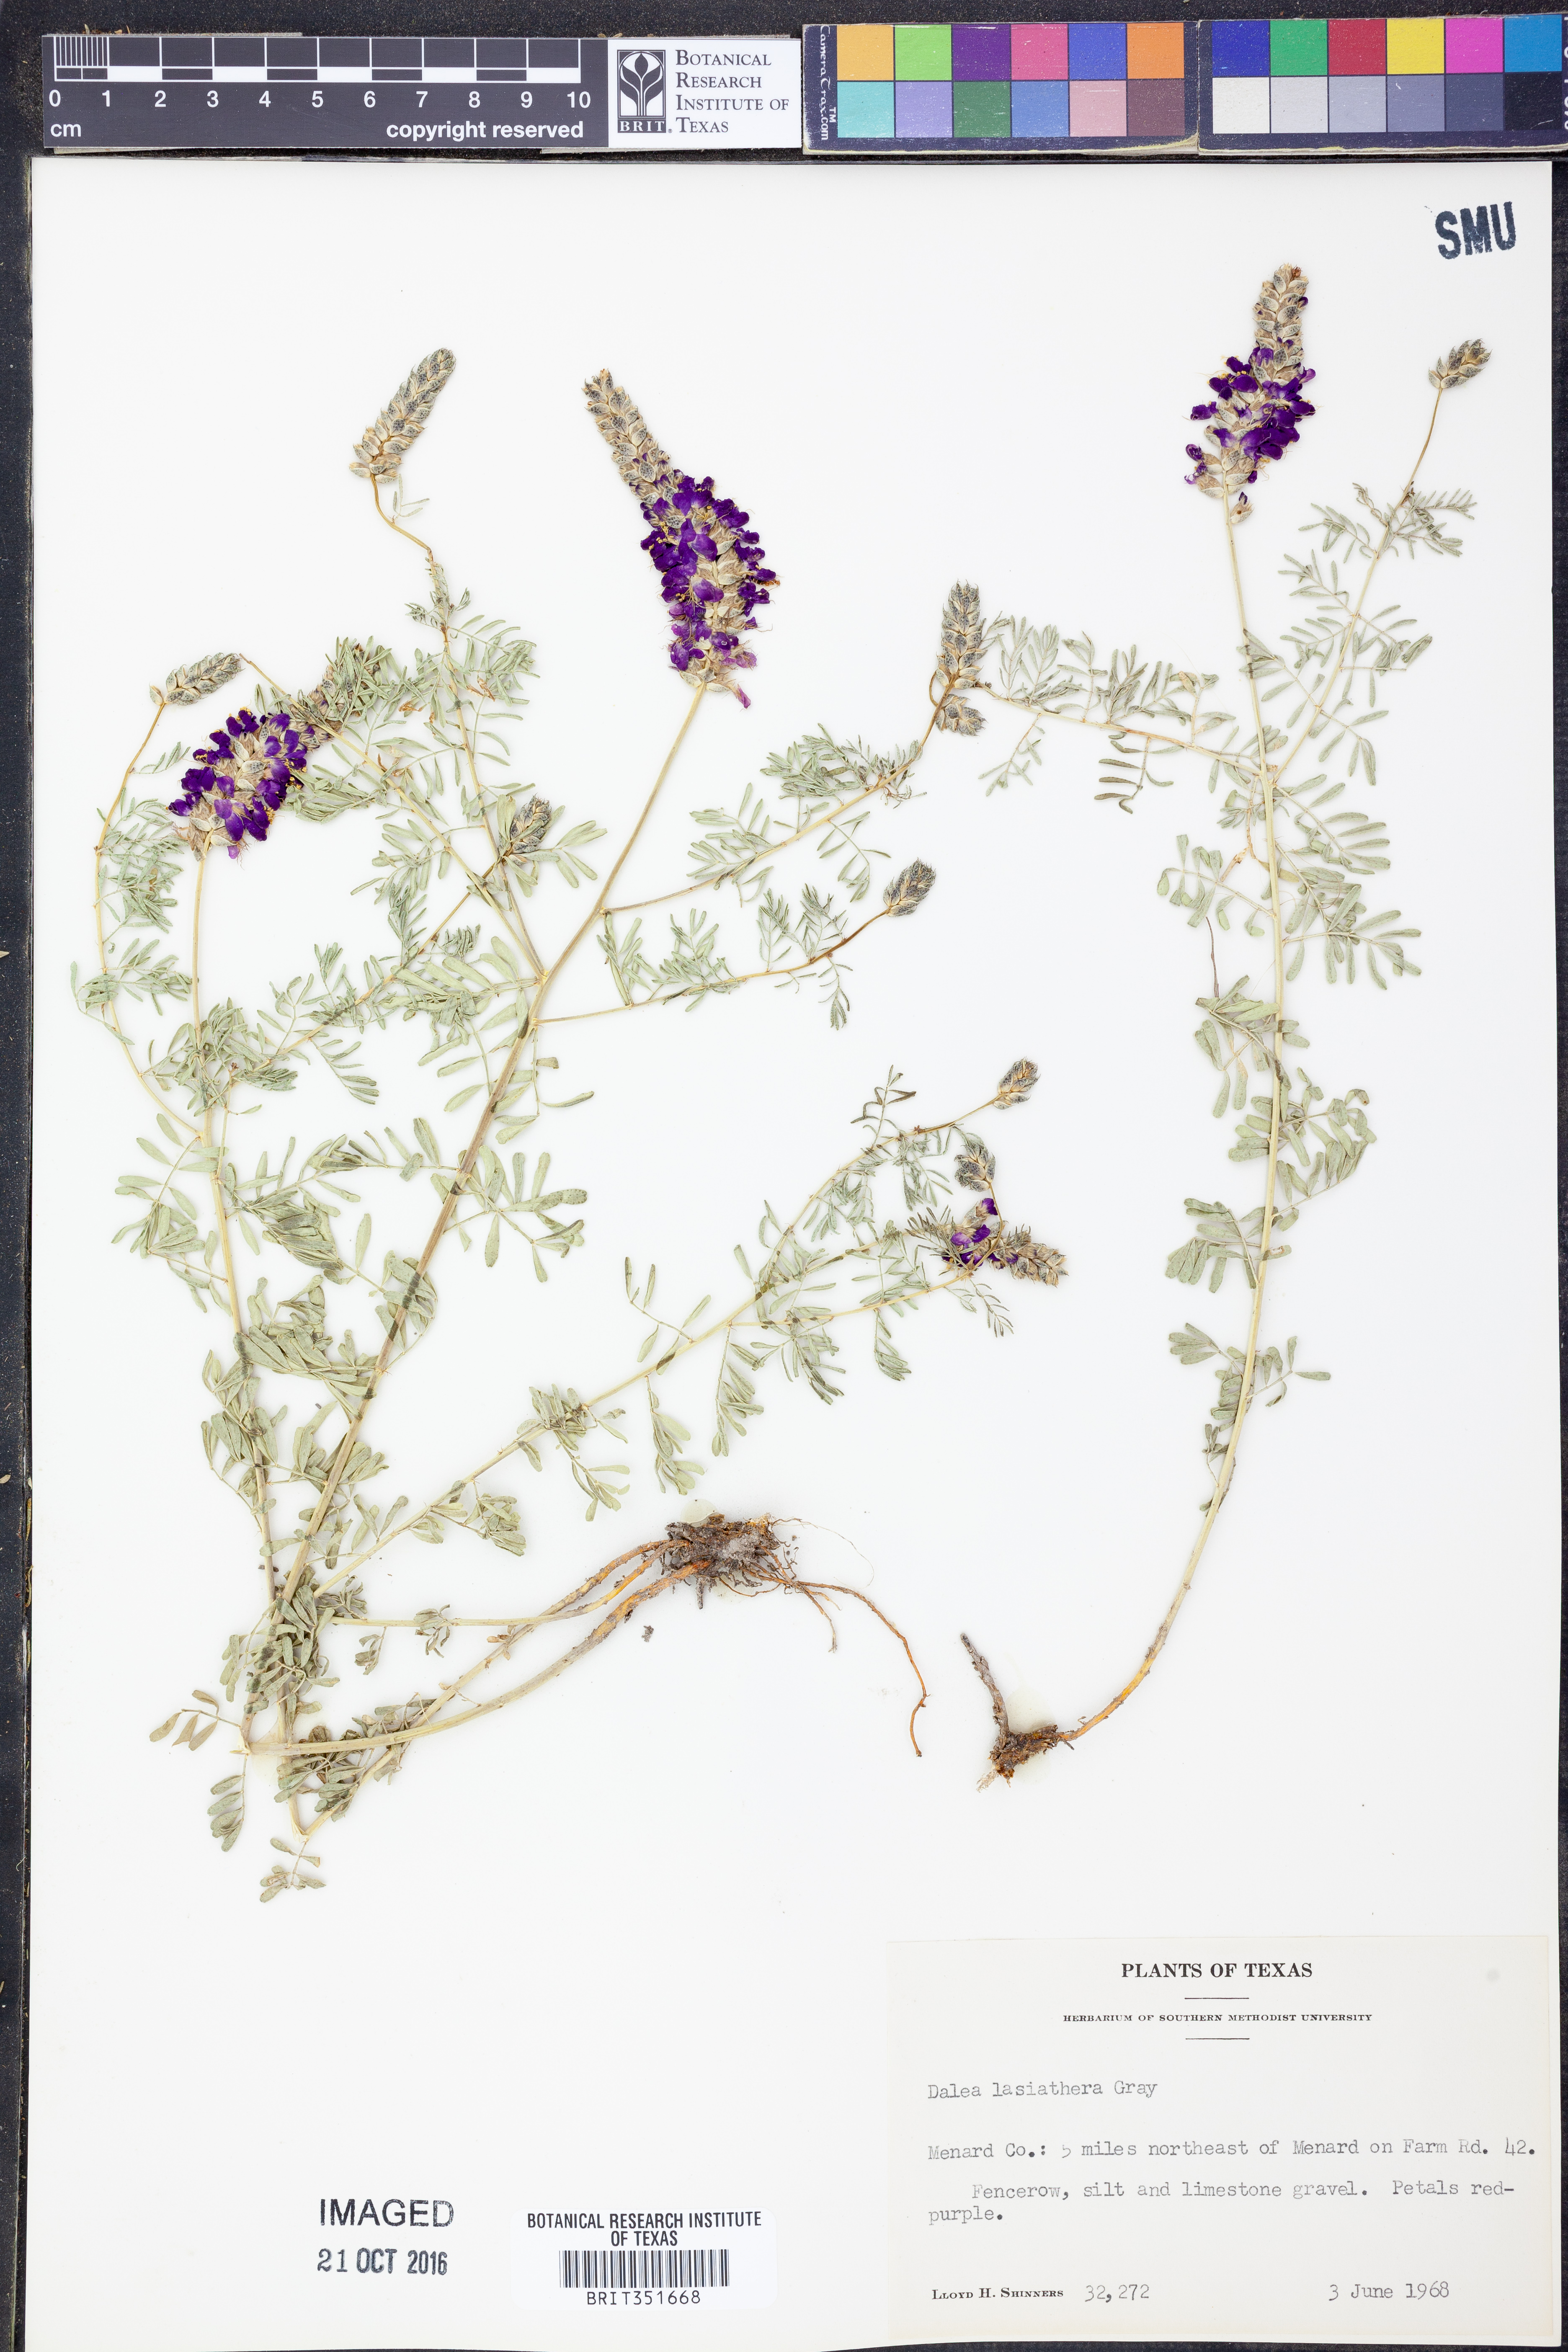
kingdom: Plantae
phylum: Tracheophyta
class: Magnoliopsida
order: Fabales
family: Fabaceae
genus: Dalea
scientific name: Dalea lasiathera
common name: Purple prairie-clover
